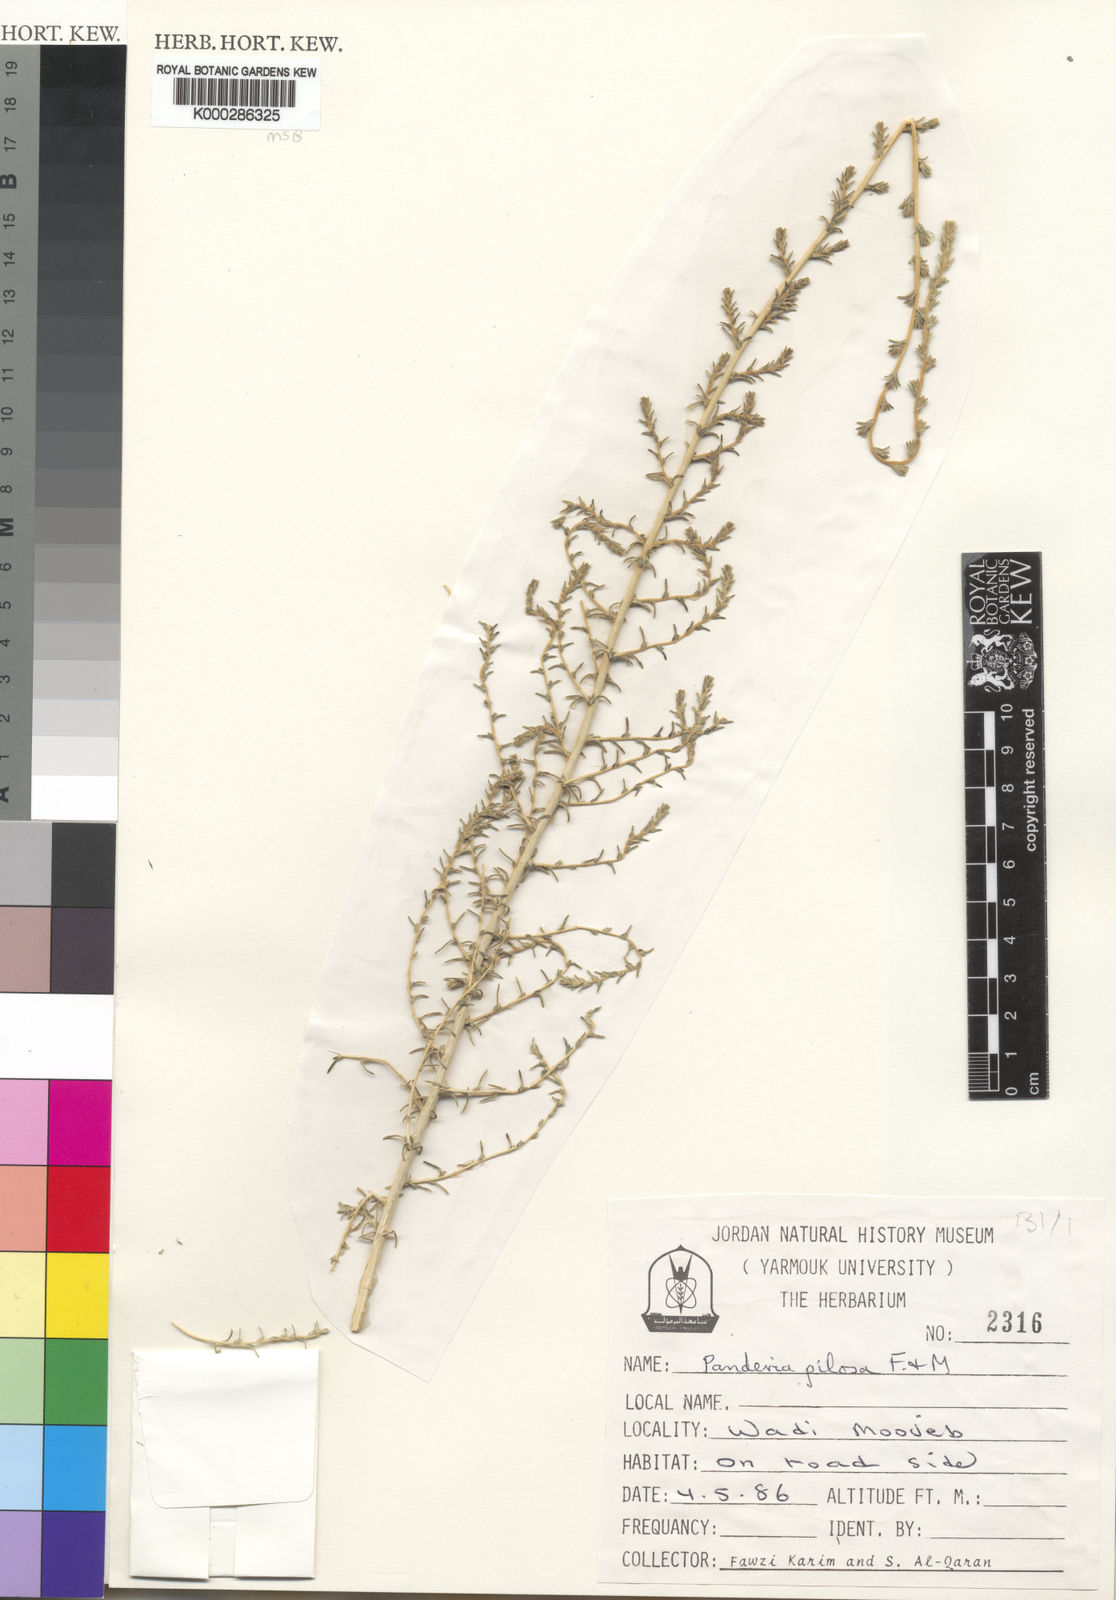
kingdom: Plantae
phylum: Tracheophyta
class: Magnoliopsida
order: Caryophyllales
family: Amaranthaceae
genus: Bassia
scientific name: Bassia stellaris
